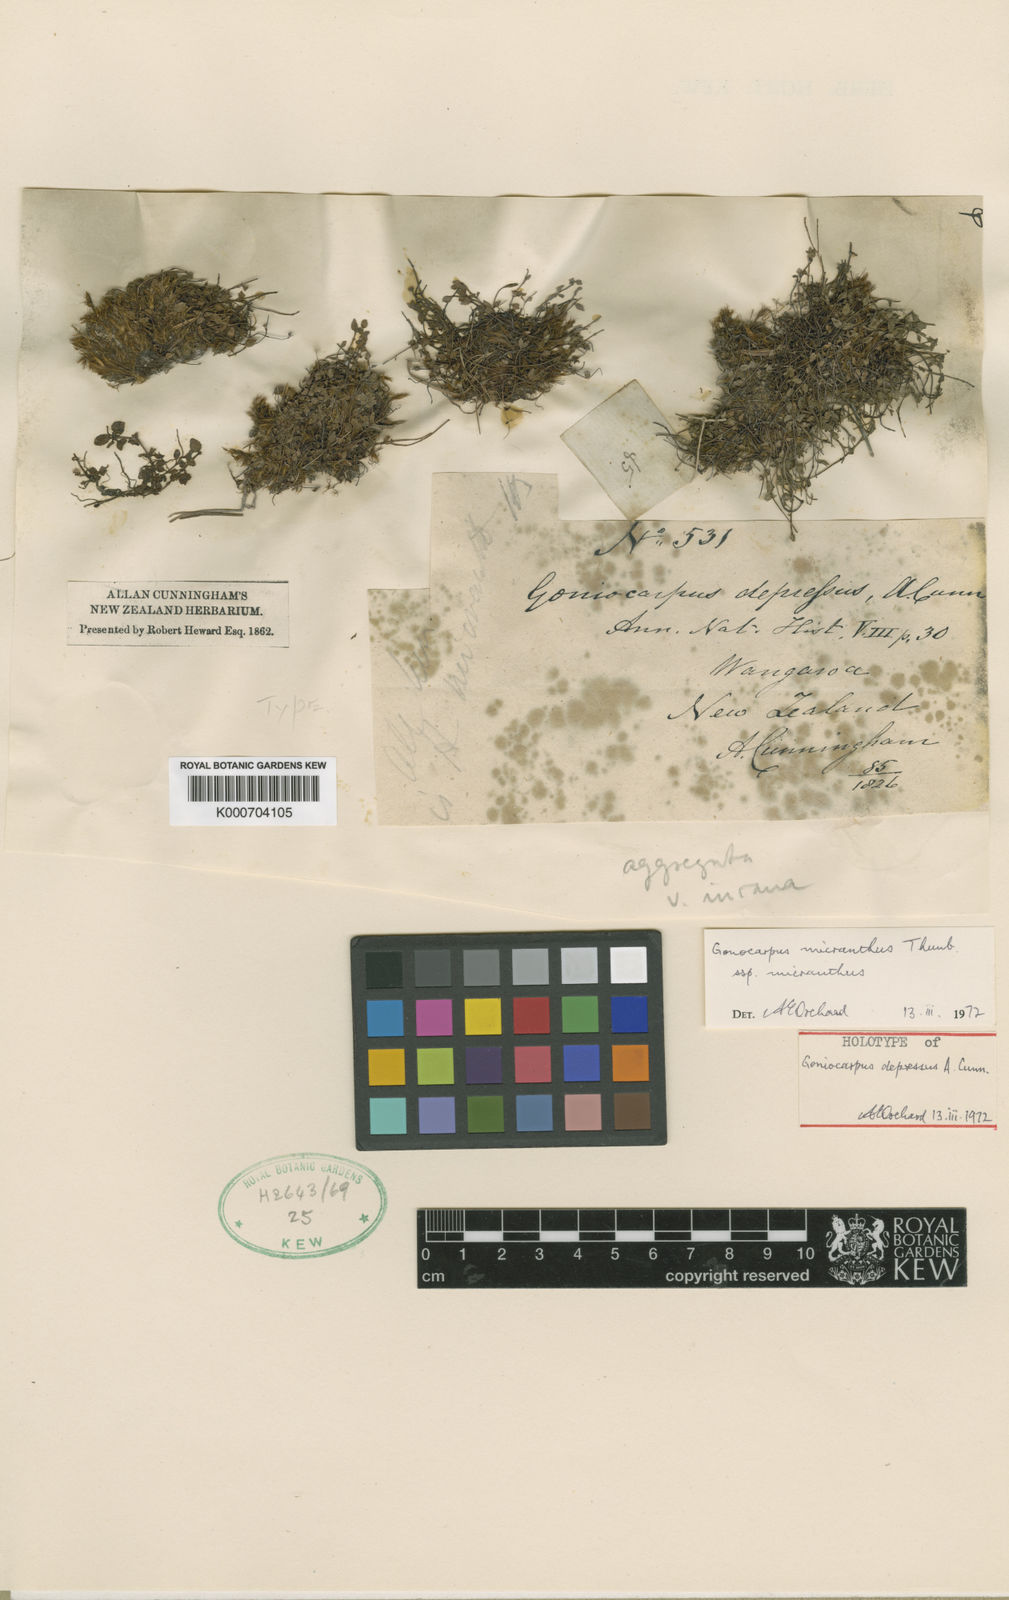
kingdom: Plantae
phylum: Tracheophyta
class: Magnoliopsida
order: Saxifragales
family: Haloragaceae
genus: Gonocarpus
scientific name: Gonocarpus micranthus
